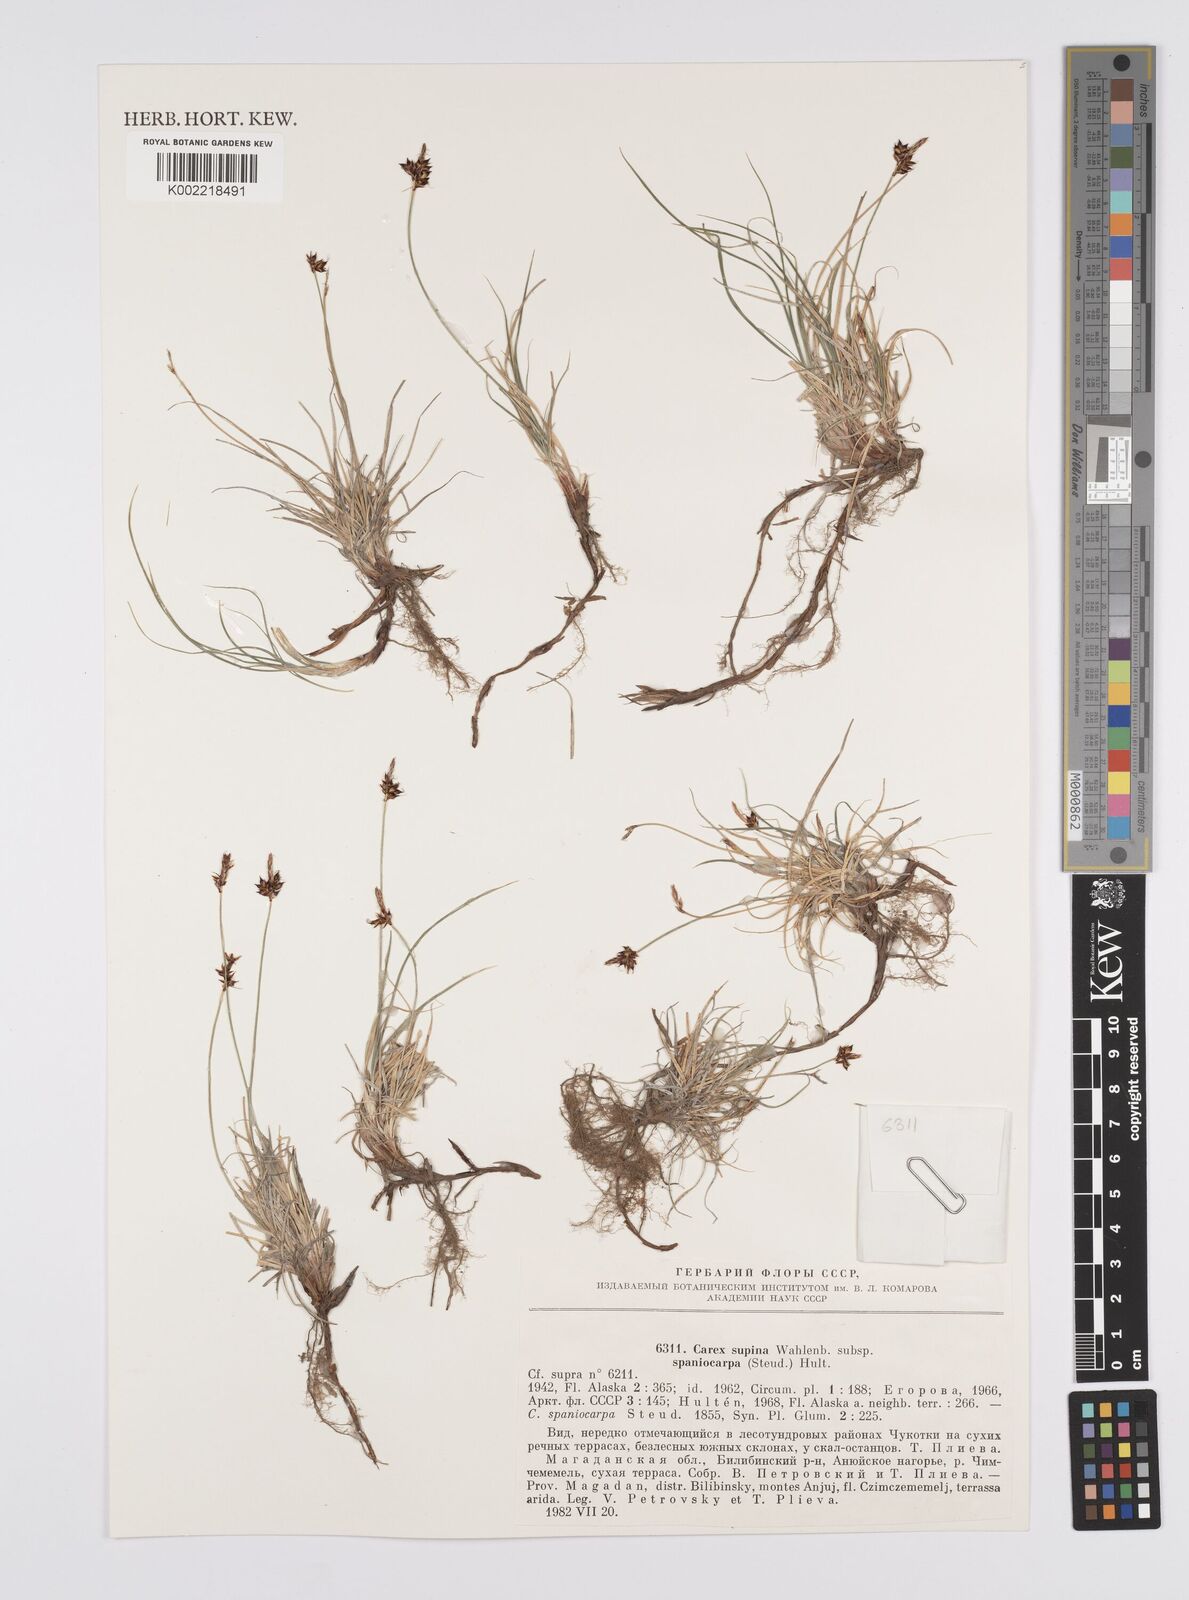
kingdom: Plantae
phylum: Tracheophyta
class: Liliopsida
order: Poales
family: Cyperaceae
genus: Carex
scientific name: Carex supina
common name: Lying-back sedge
